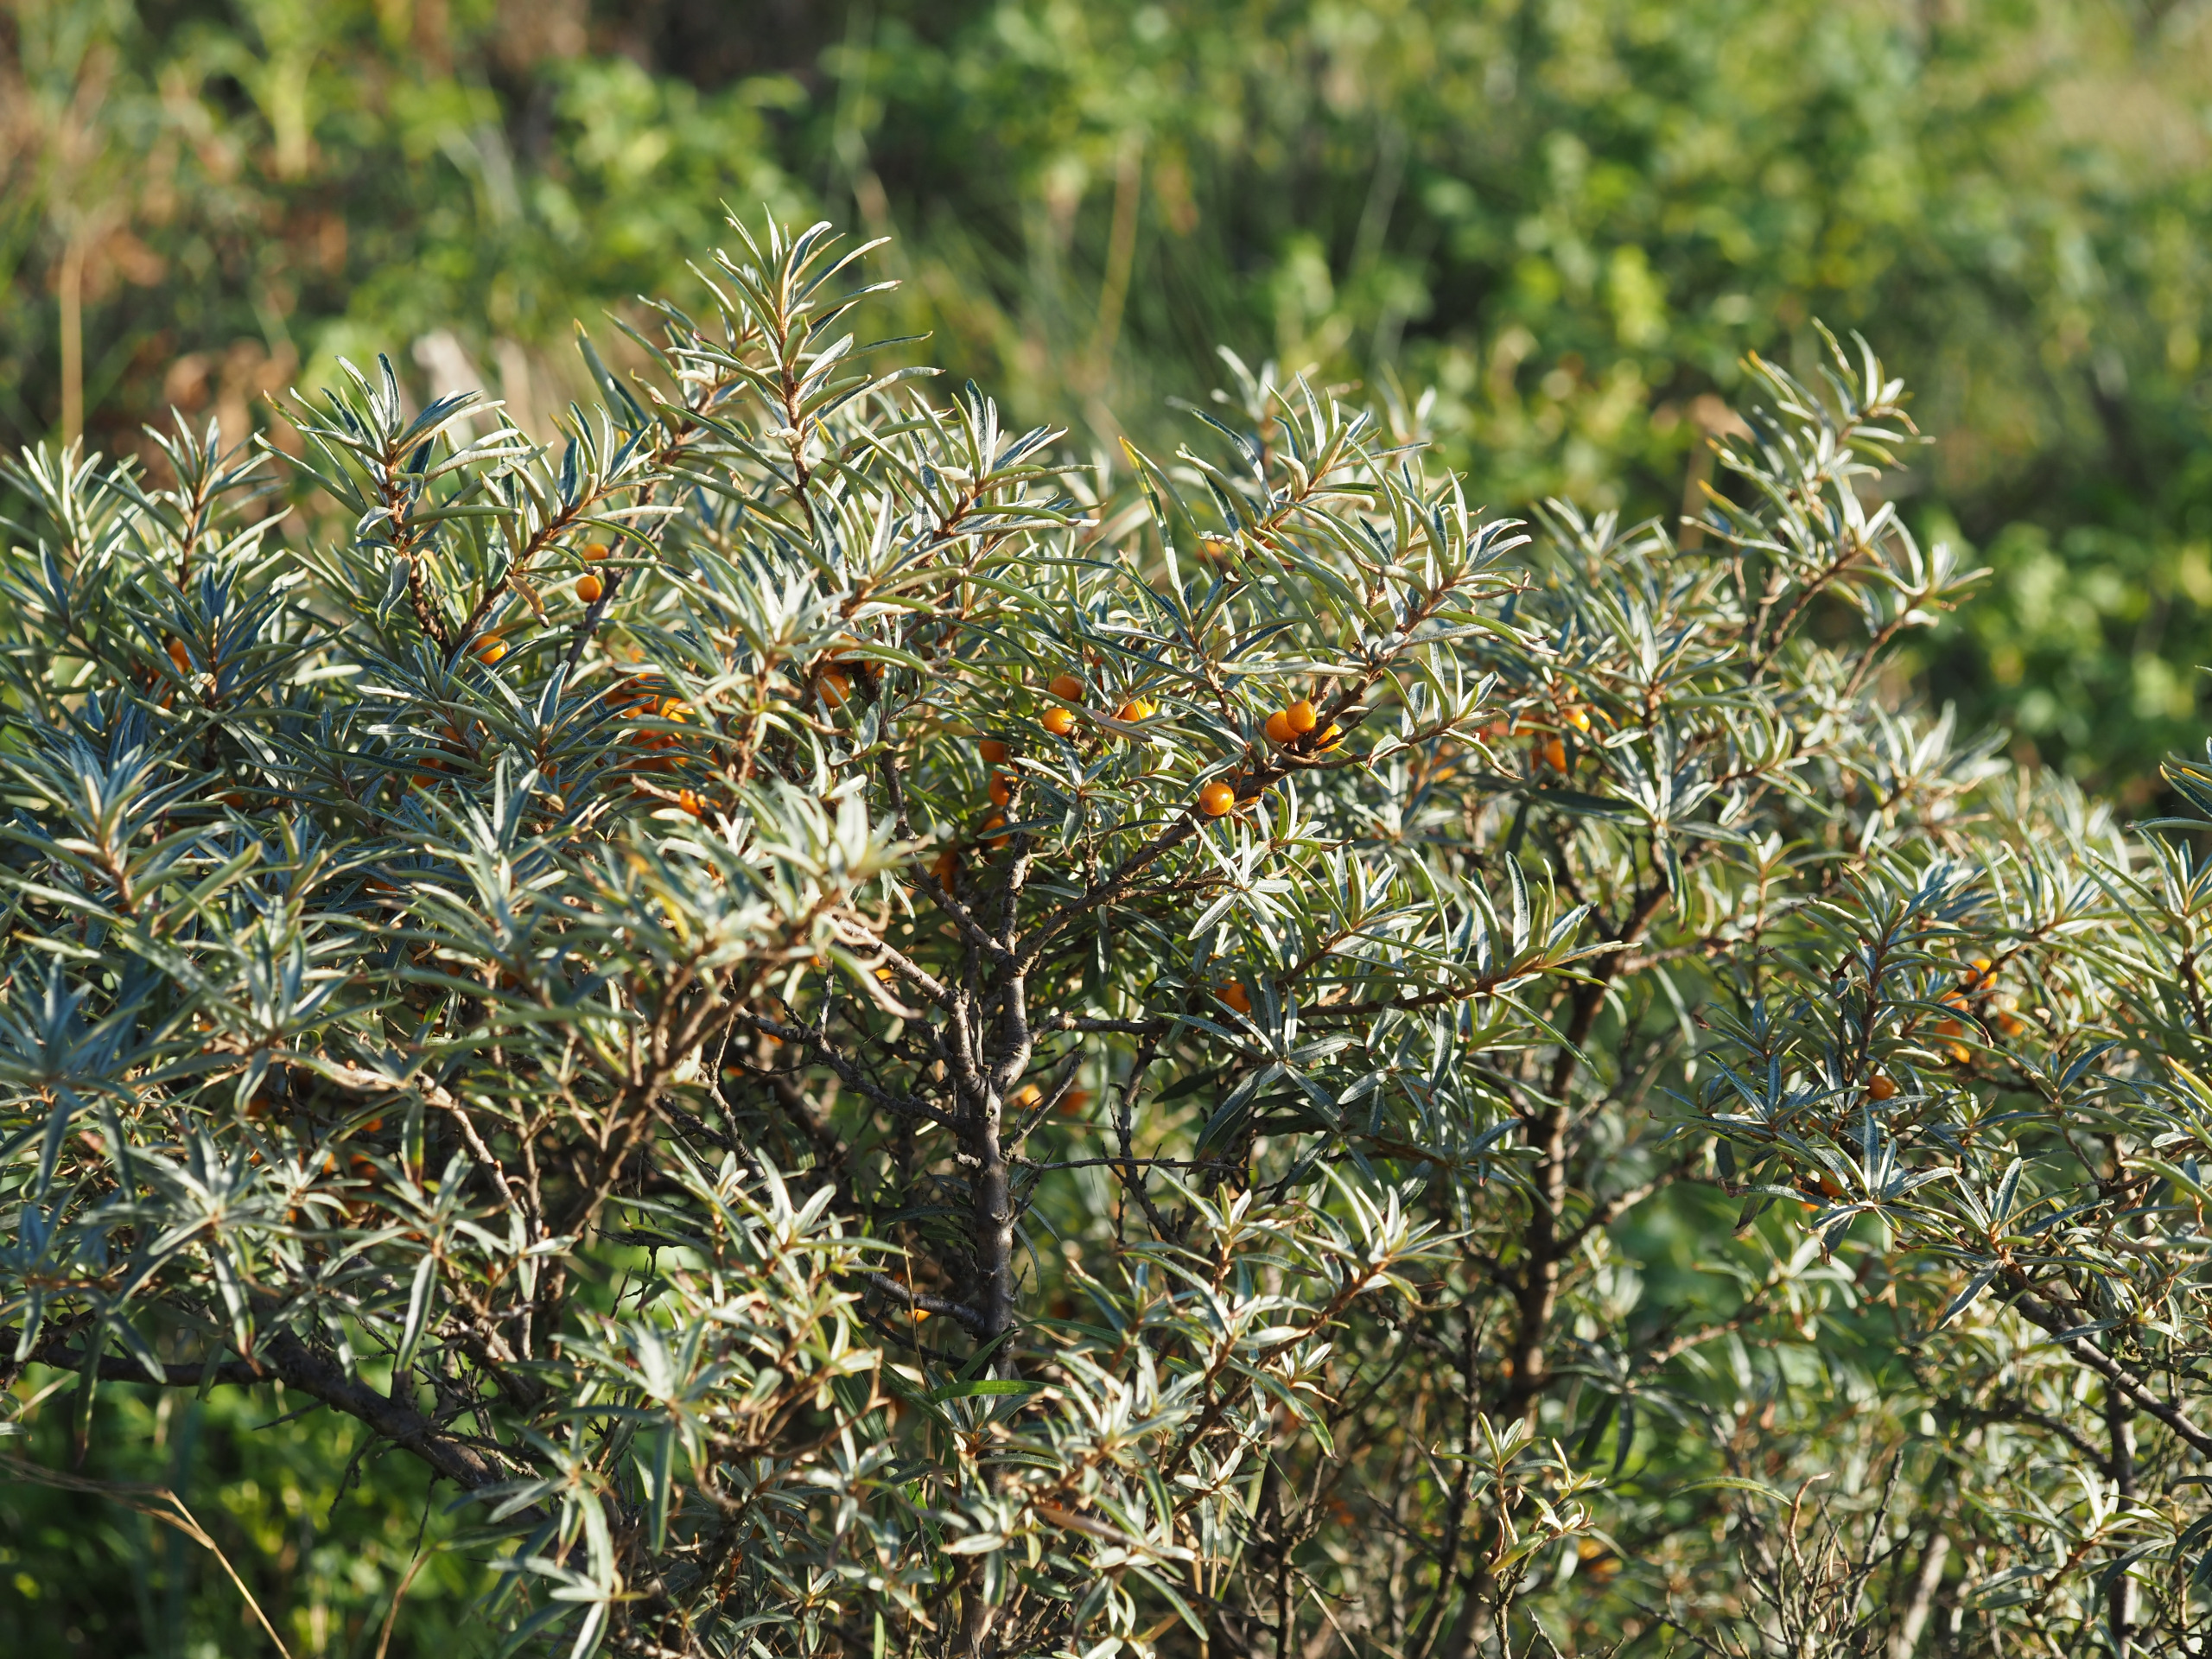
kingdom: Plantae
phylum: Tracheophyta
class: Magnoliopsida
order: Rosales
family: Elaeagnaceae
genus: Hippophae
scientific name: Hippophae rhamnoides
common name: Havtorn
